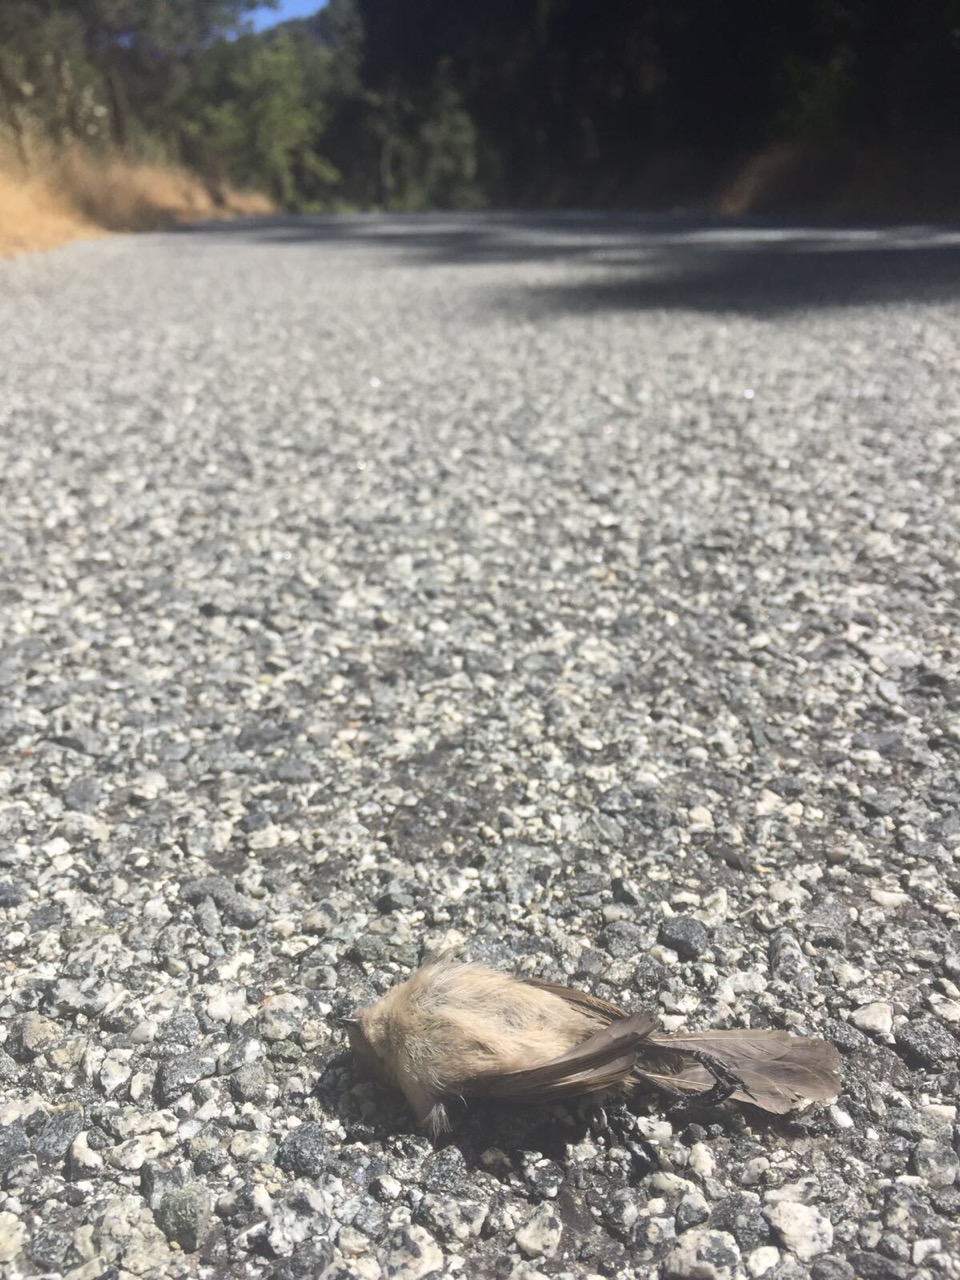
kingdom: Animalia
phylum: Chordata
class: Aves
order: Passeriformes
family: Polioptilidae
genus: Polioptila
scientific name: Polioptila caerulea
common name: Blue-gray gnatcatcher
